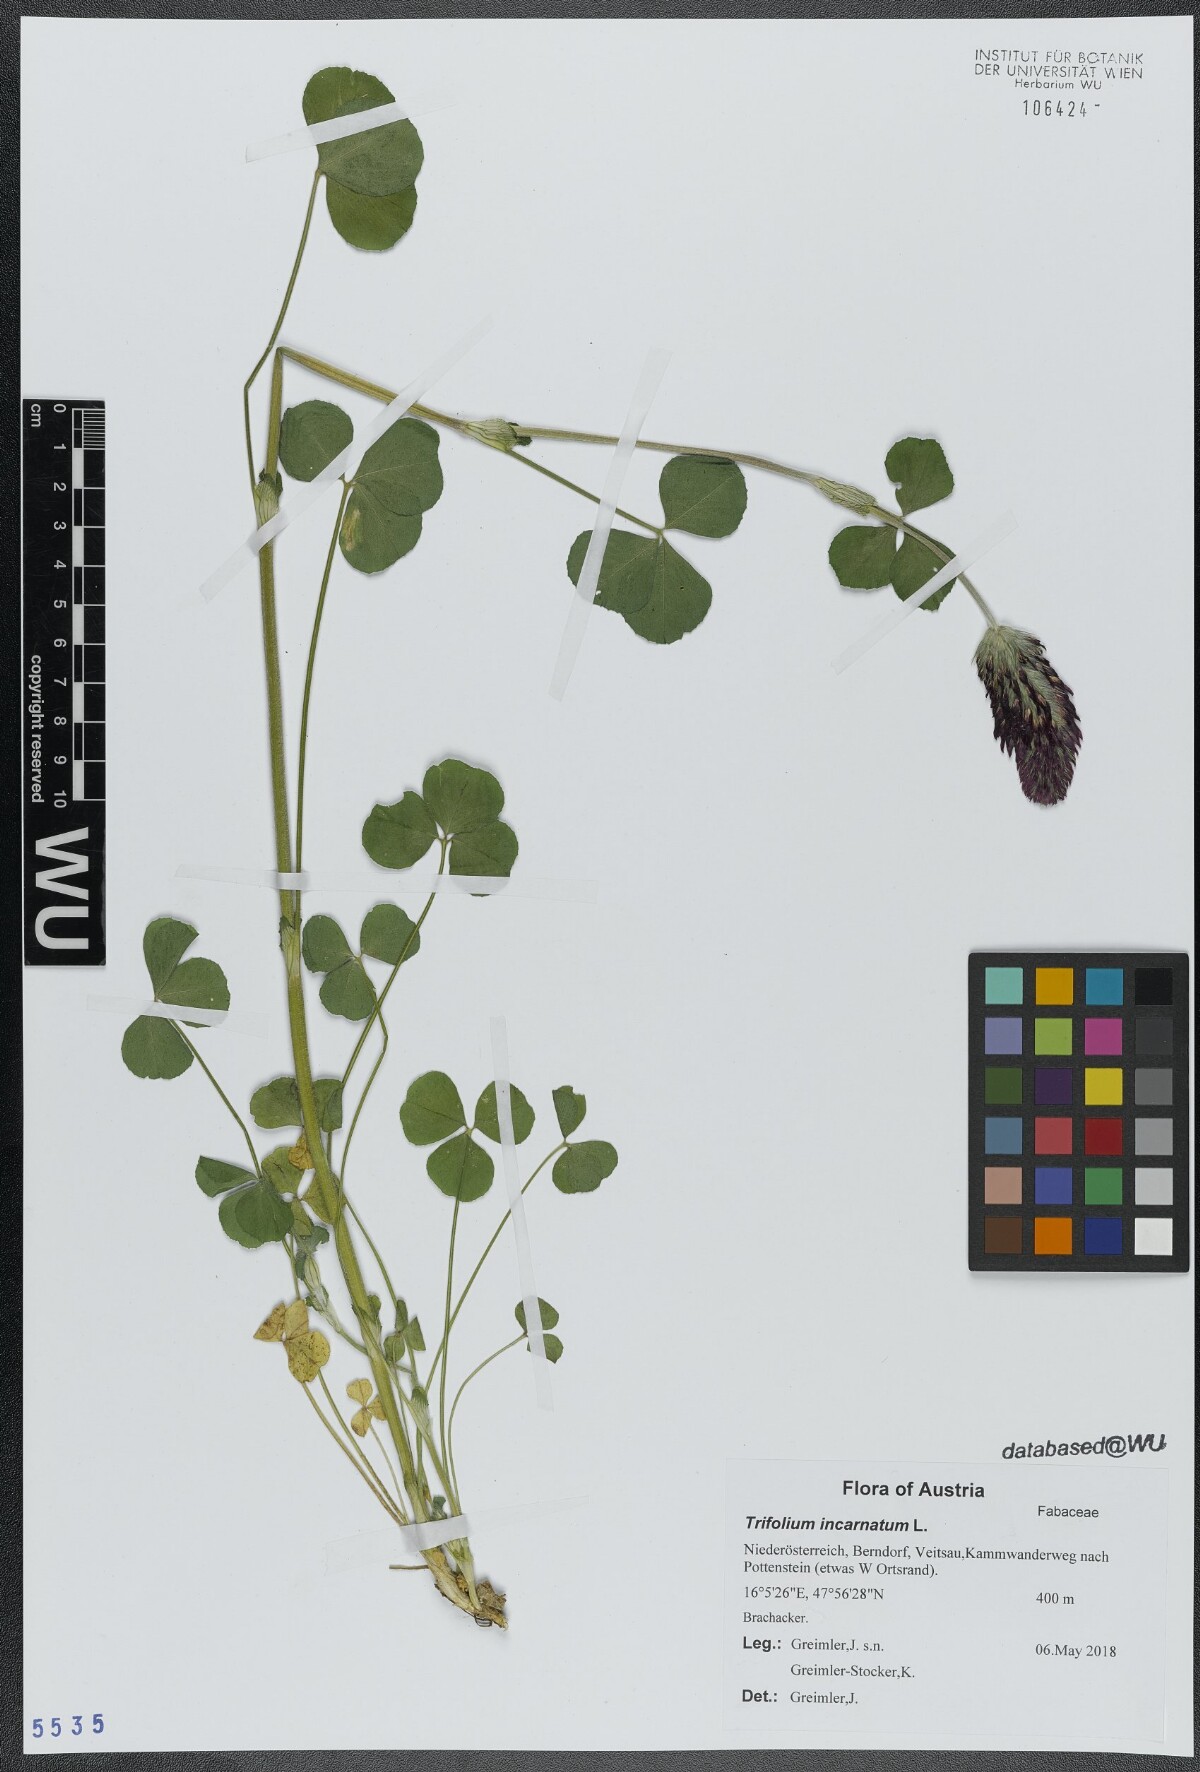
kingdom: Plantae
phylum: Tracheophyta
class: Magnoliopsida
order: Fabales
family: Fabaceae
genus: Trifolium
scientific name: Trifolium incarnatum
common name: Crimson clover
